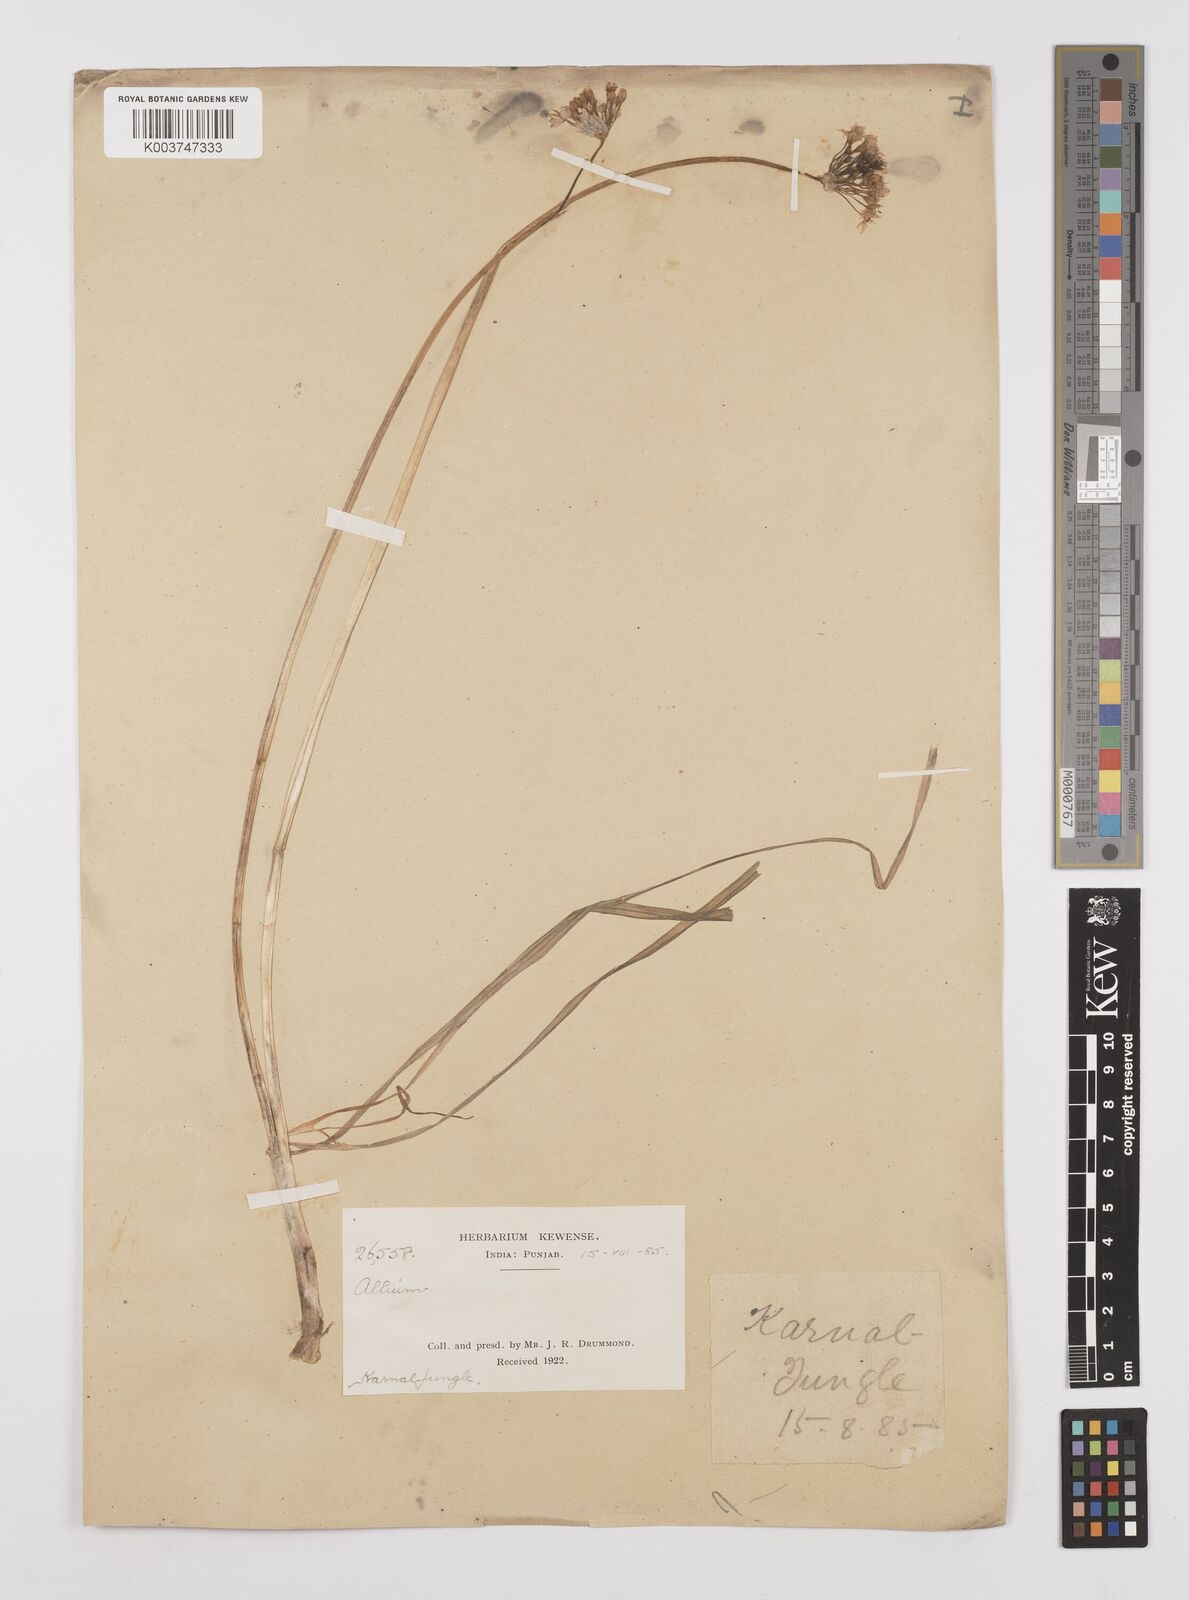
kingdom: Plantae
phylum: Tracheophyta
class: Liliopsida
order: Asparagales
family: Amaryllidaceae
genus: Allium
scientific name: Allium tuberosum
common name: Chinese chives
